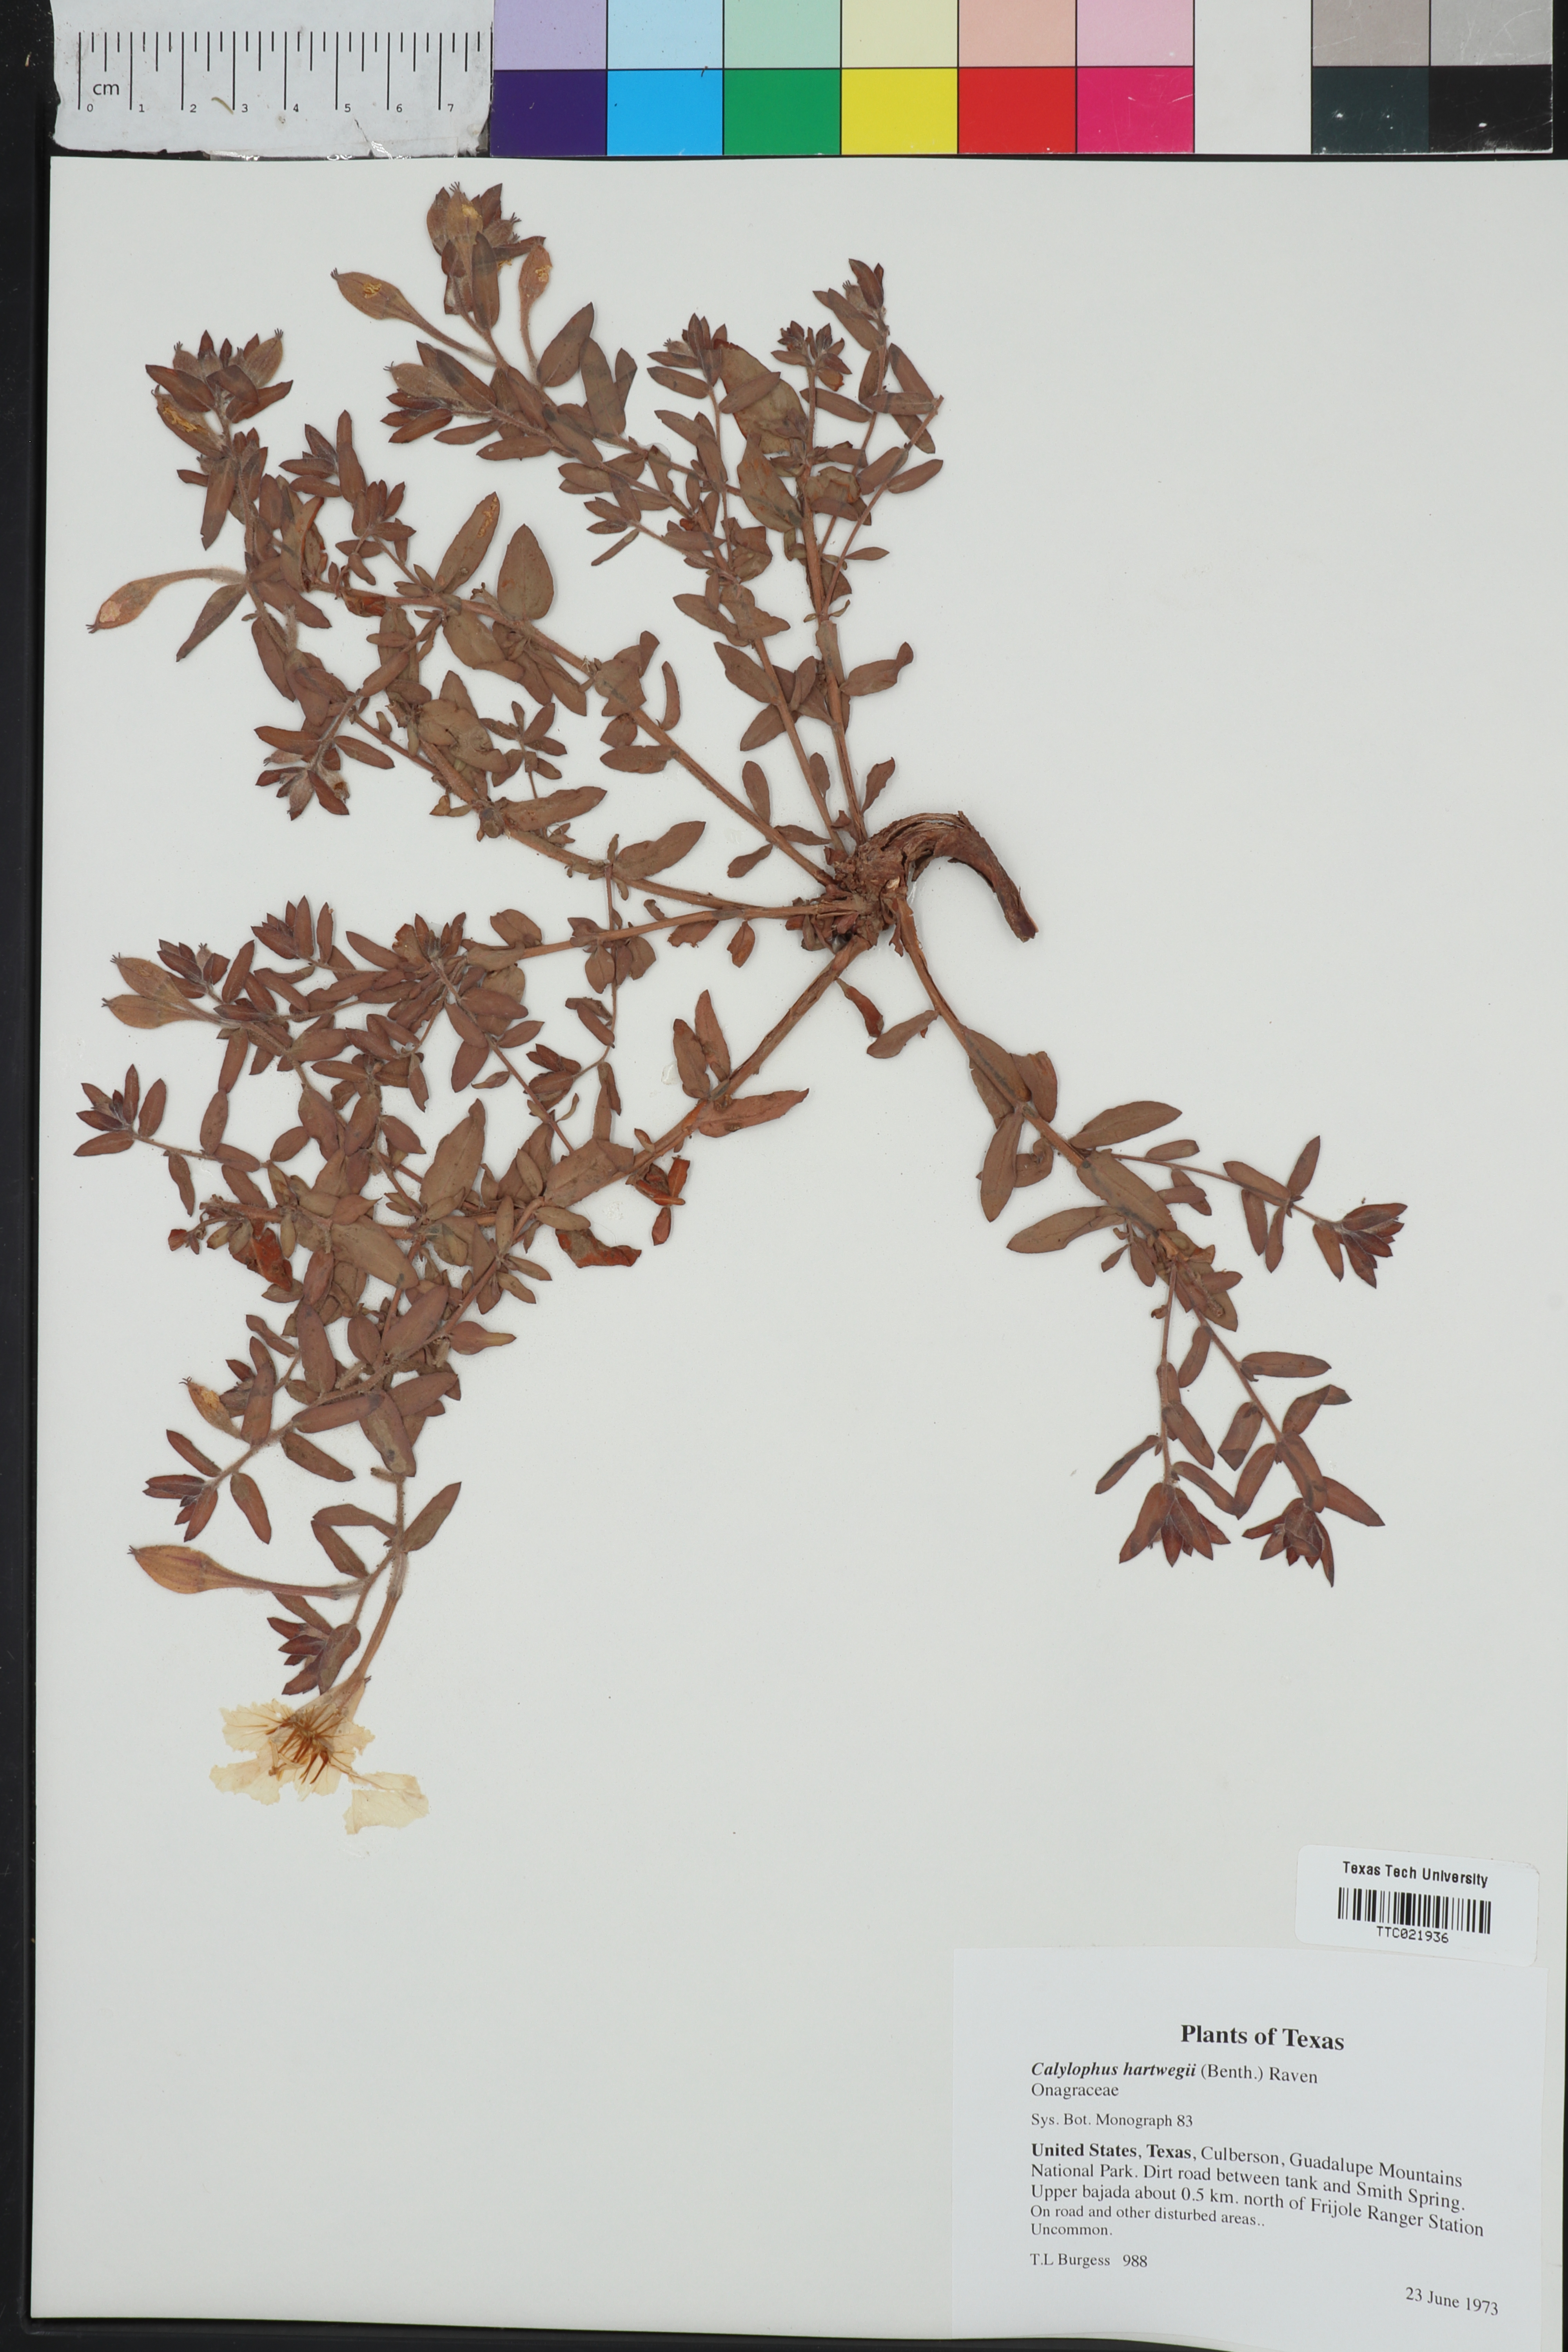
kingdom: Plantae
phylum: Tracheophyta
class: Magnoliopsida
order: Myrtales
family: Onagraceae
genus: Oenothera
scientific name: Oenothera hartwegii
